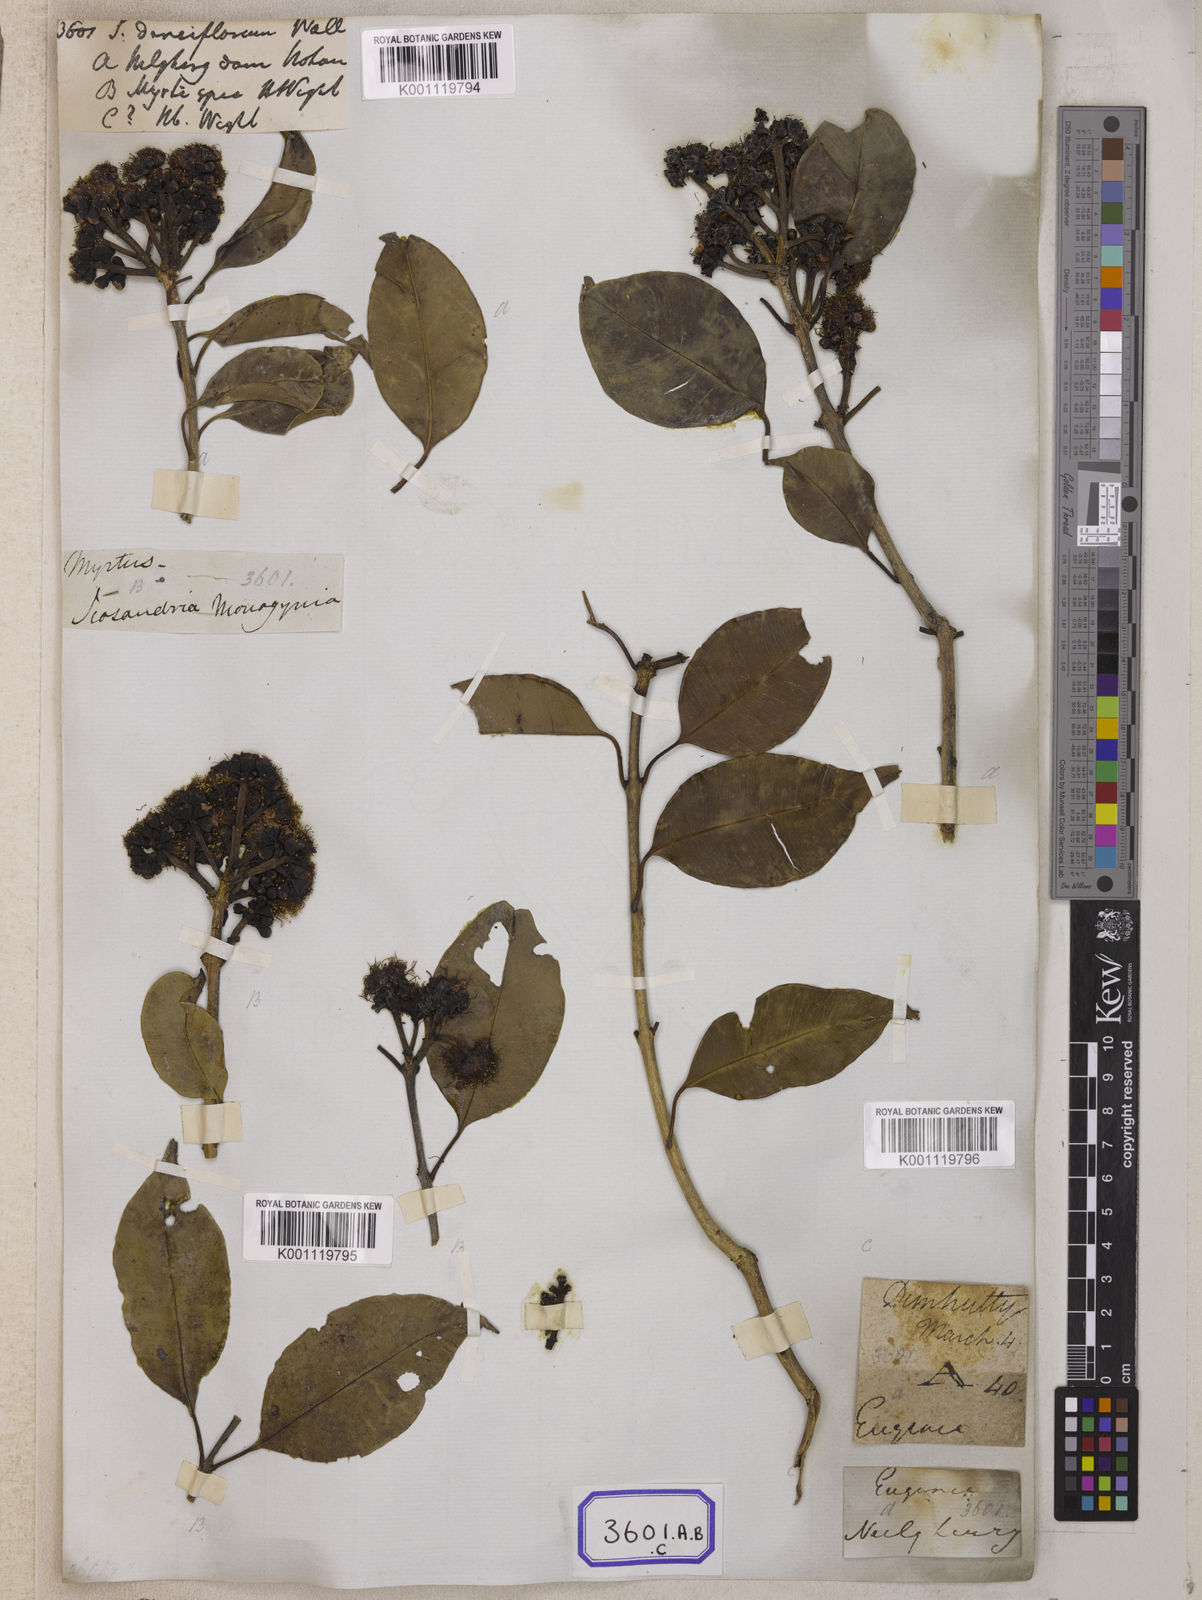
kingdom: Plantae
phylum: Tracheophyta
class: Magnoliopsida
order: Myrtales
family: Myrtaceae
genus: Syzygium
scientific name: Syzygium
